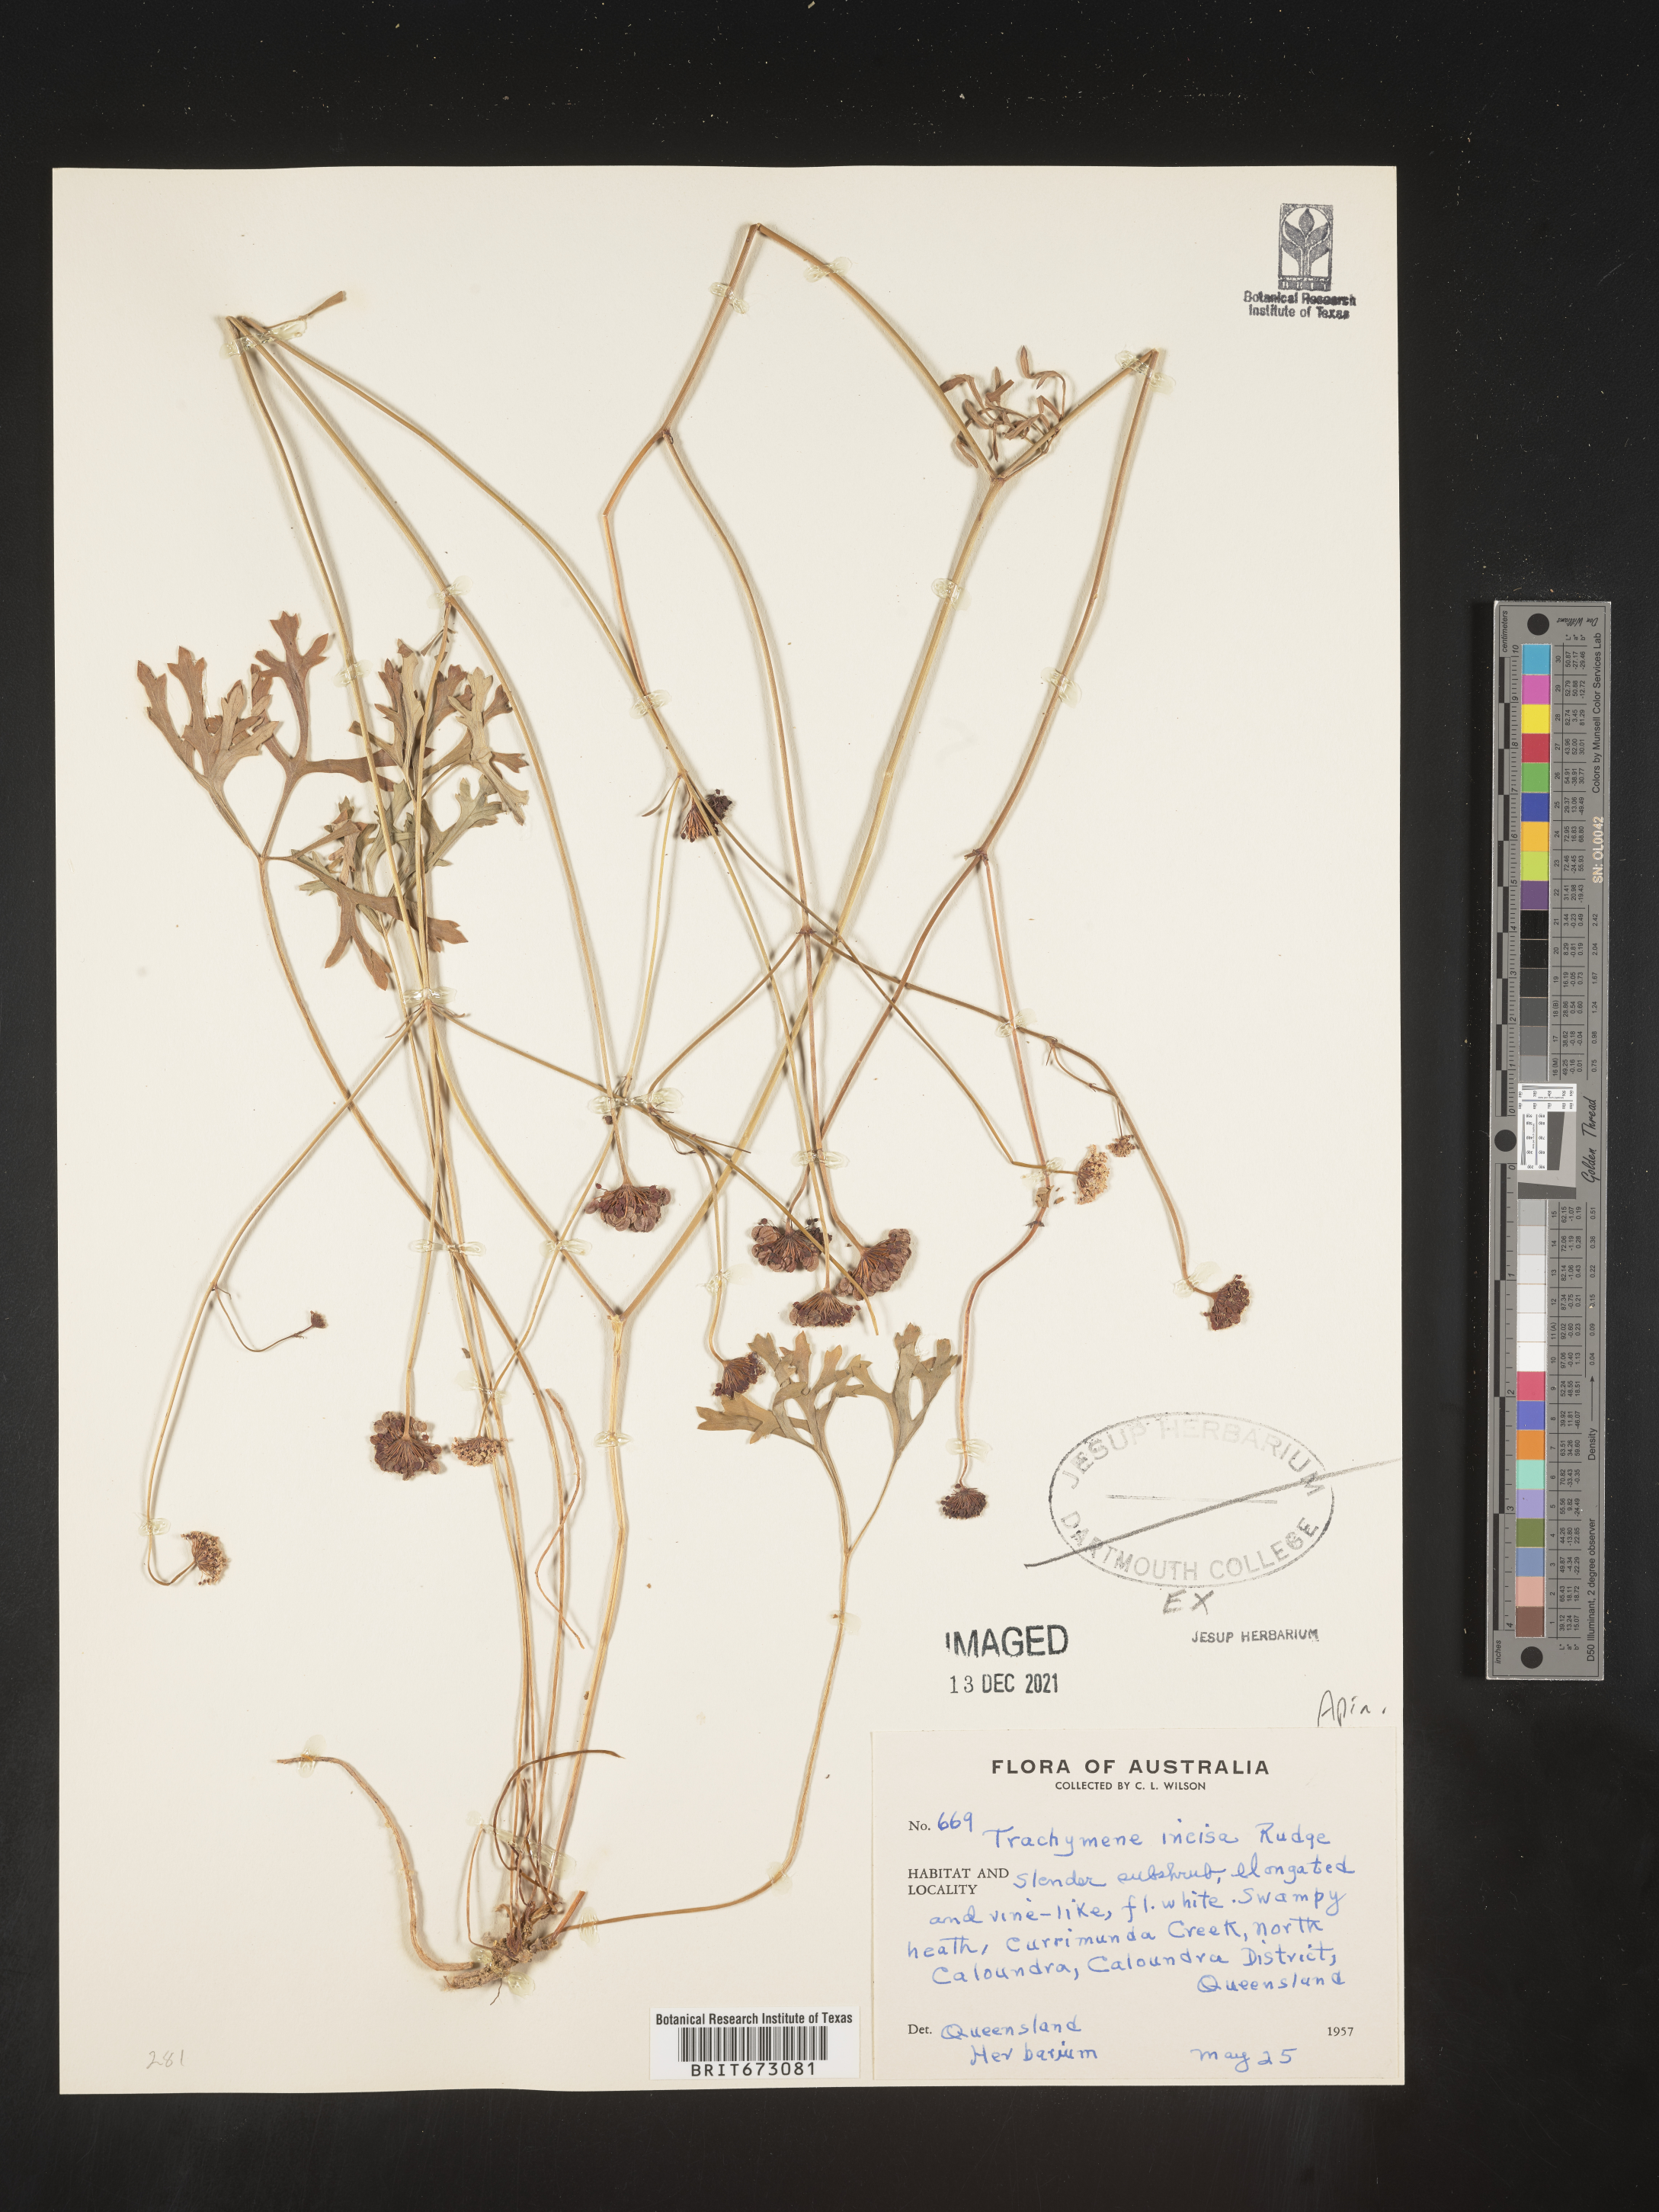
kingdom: Plantae
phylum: Tracheophyta
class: Magnoliopsida
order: Apiales
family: Araliaceae
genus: Trachymene
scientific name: Trachymene
